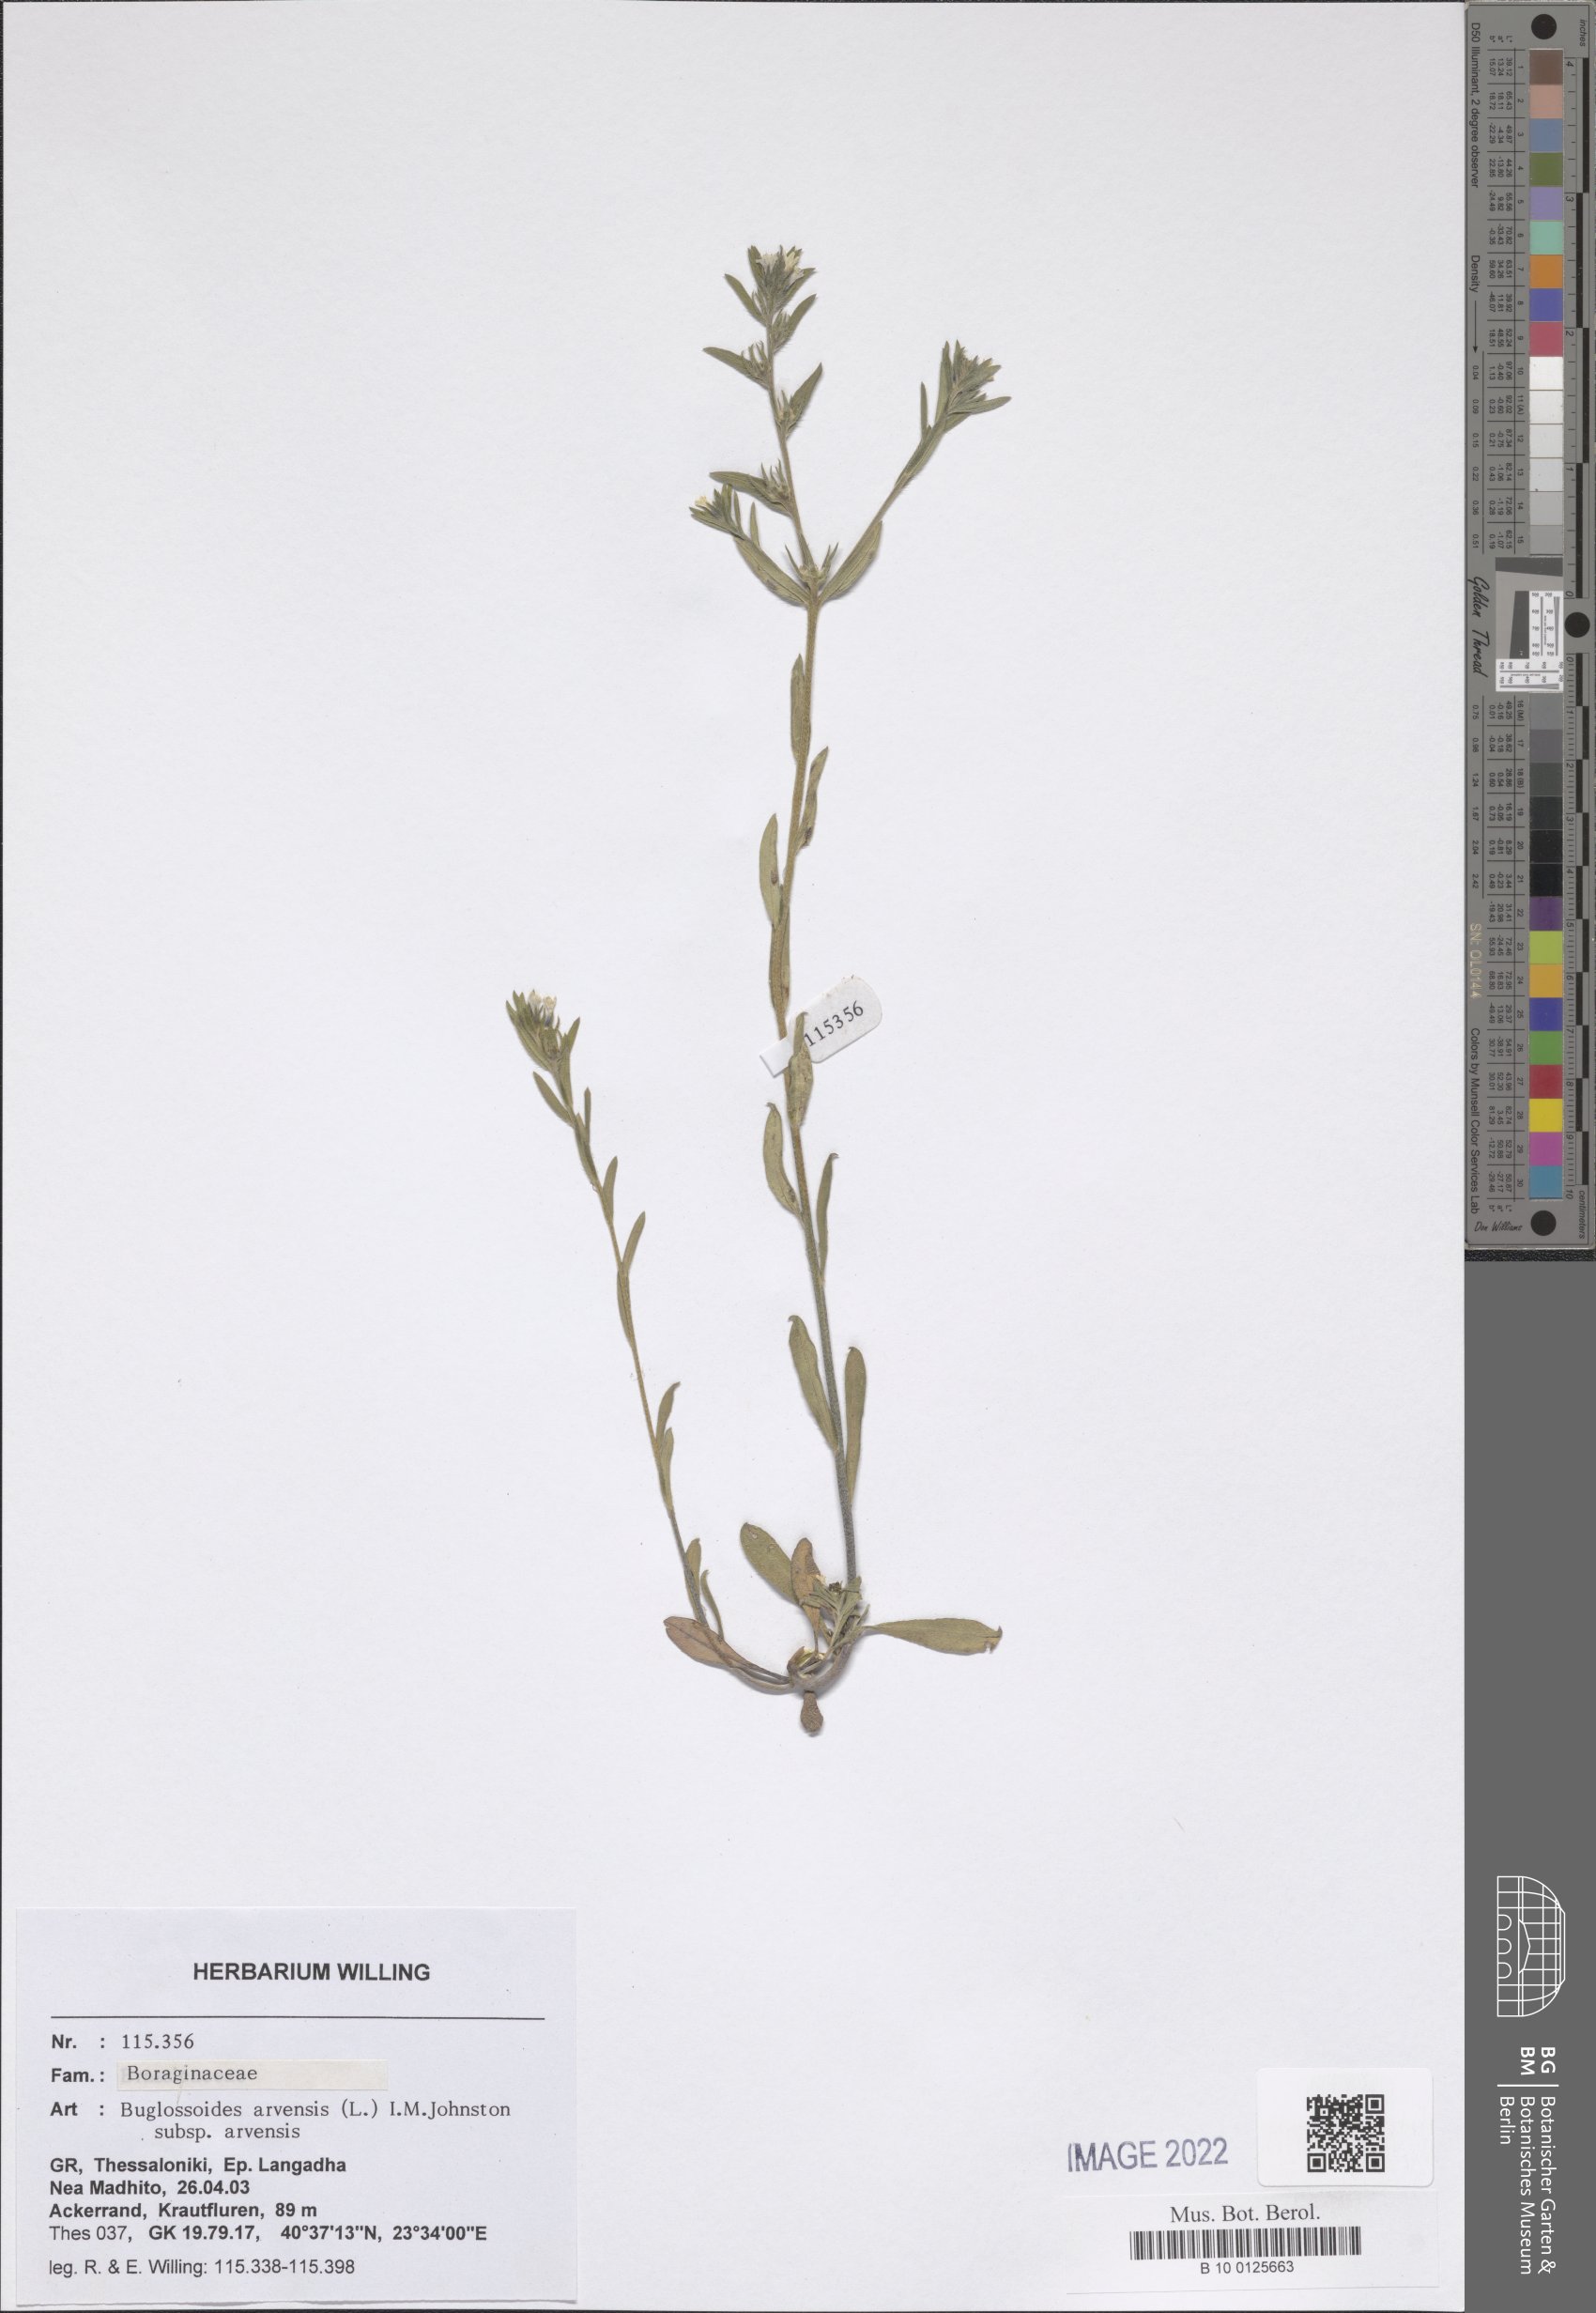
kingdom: Plantae
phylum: Tracheophyta
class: Magnoliopsida
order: Boraginales
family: Boraginaceae
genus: Buglossoides
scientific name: Buglossoides arvensis
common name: Corn gromwell
